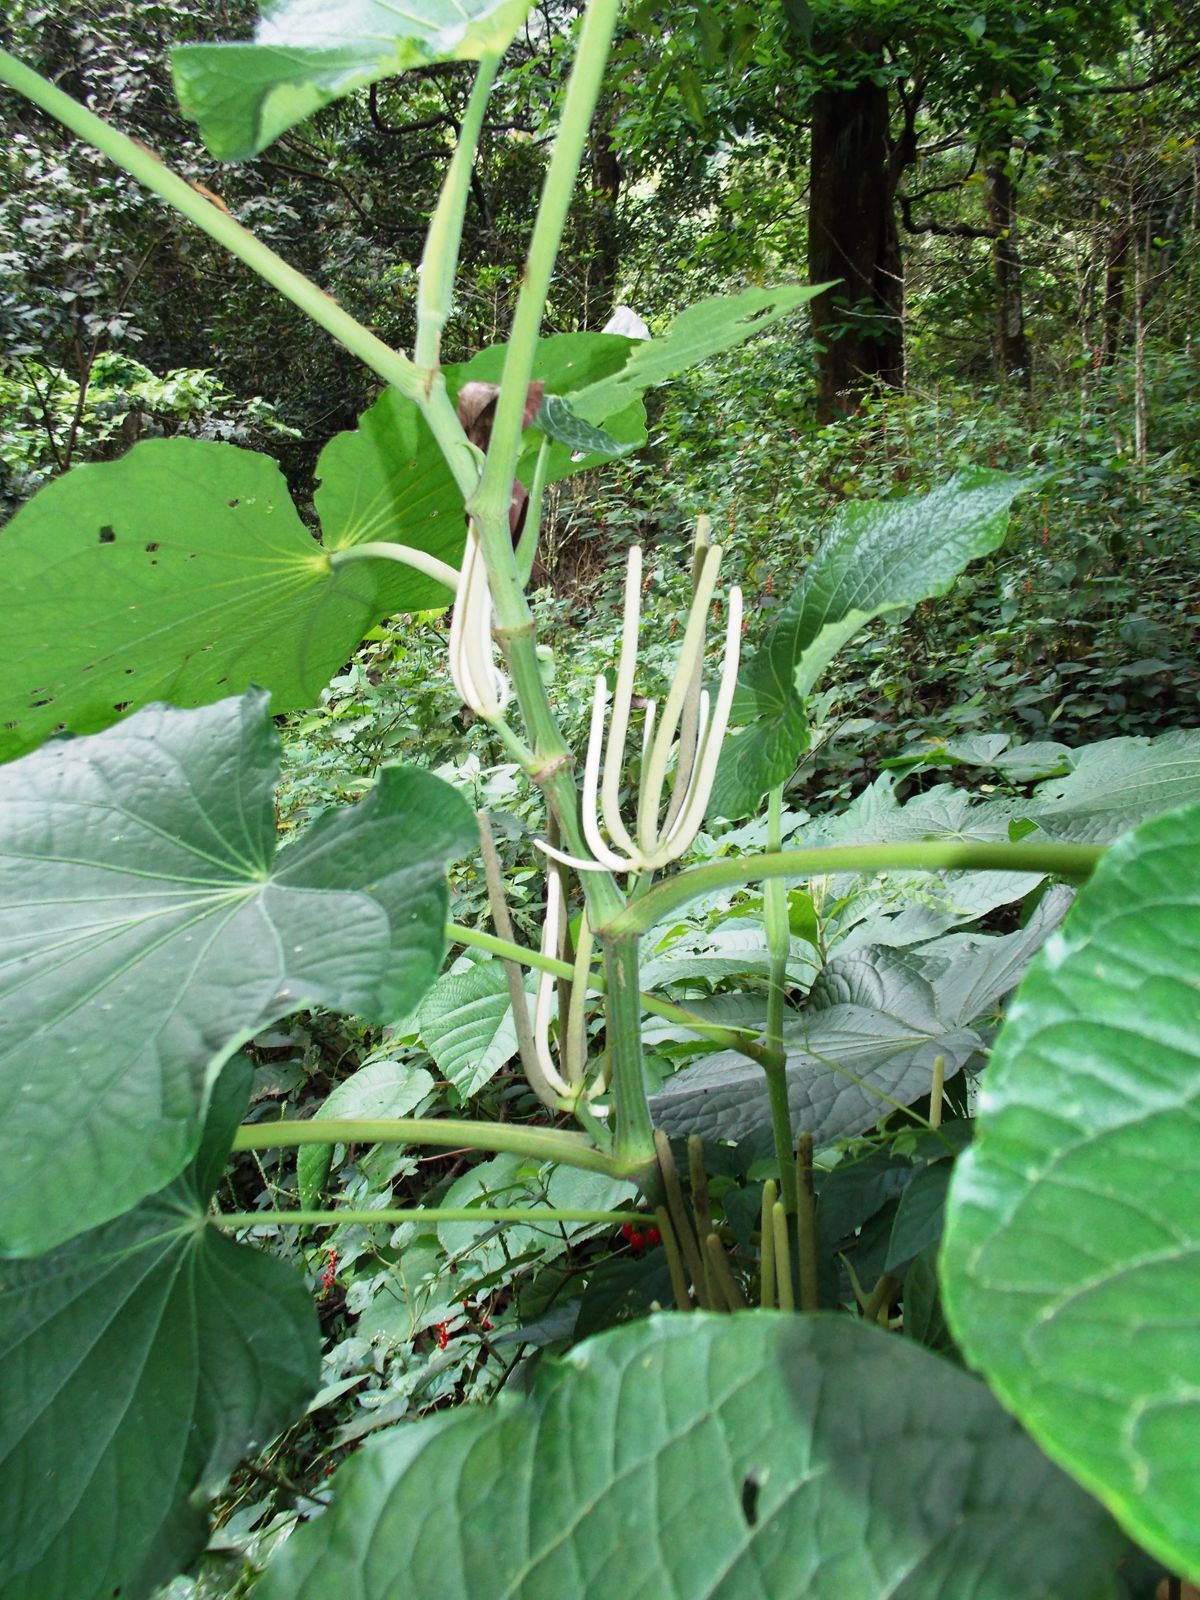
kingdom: Plantae
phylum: Tracheophyta
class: Magnoliopsida
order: Piperales
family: Piperaceae
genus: Piper
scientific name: Piper umbellatum
